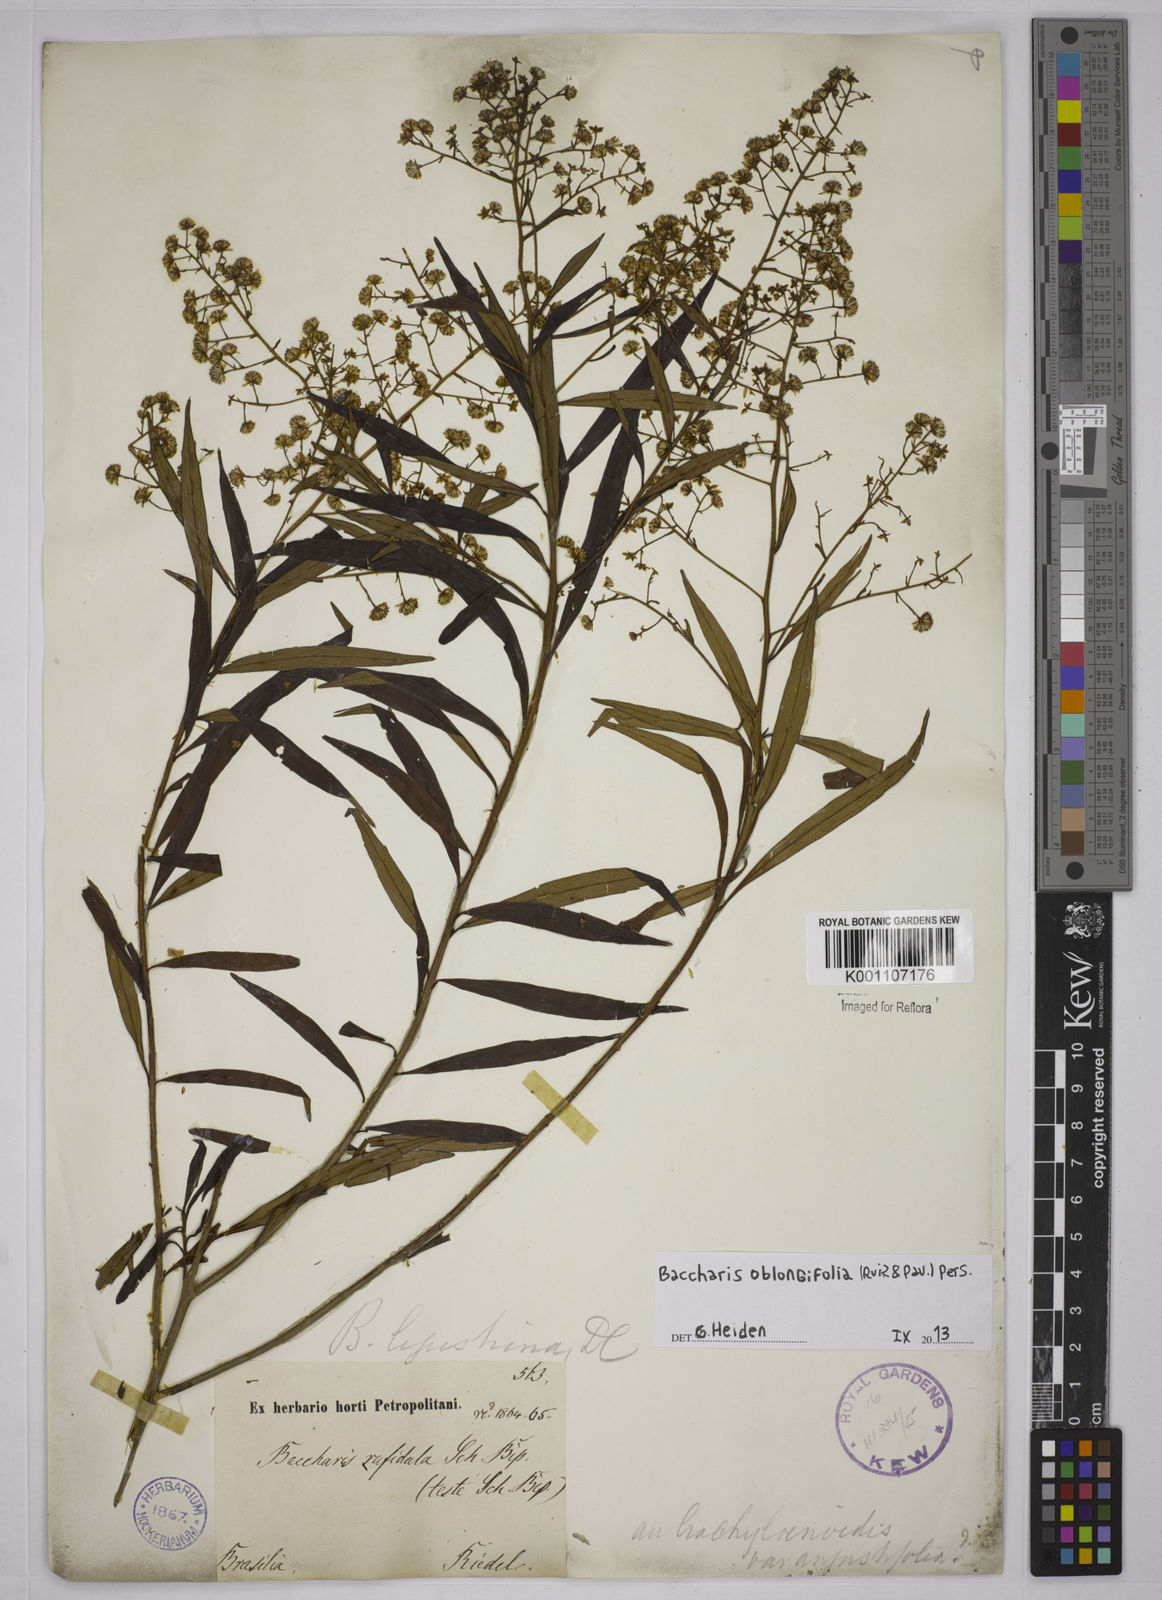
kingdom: Plantae
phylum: Tracheophyta
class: Magnoliopsida
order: Asterales
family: Asteraceae
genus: Baccharis
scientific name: Baccharis oblongifolia
